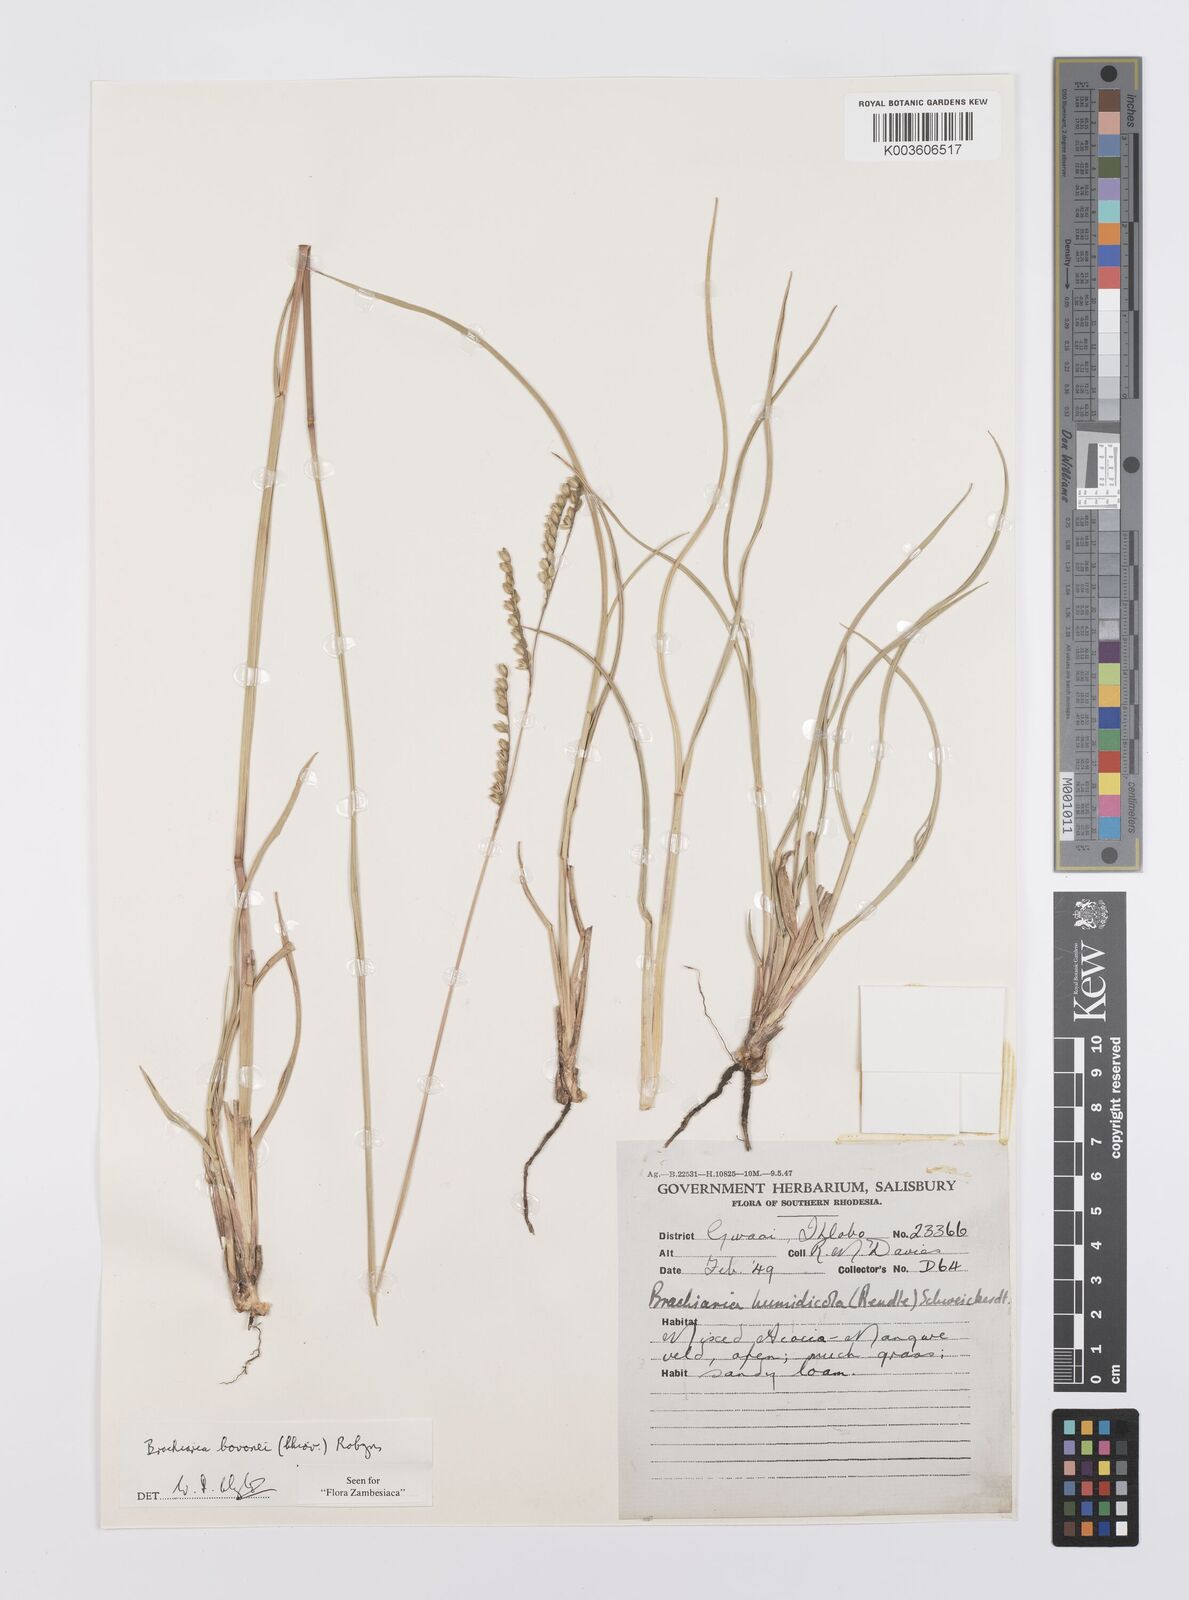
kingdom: Plantae
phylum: Tracheophyta
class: Liliopsida
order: Poales
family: Poaceae
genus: Urochloa
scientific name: Urochloa bovonei
